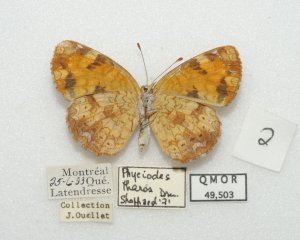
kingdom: Animalia
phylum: Arthropoda
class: Insecta
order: Lepidoptera
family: Nymphalidae
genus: Phyciodes
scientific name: Phyciodes tharos
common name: Northern Crescent
